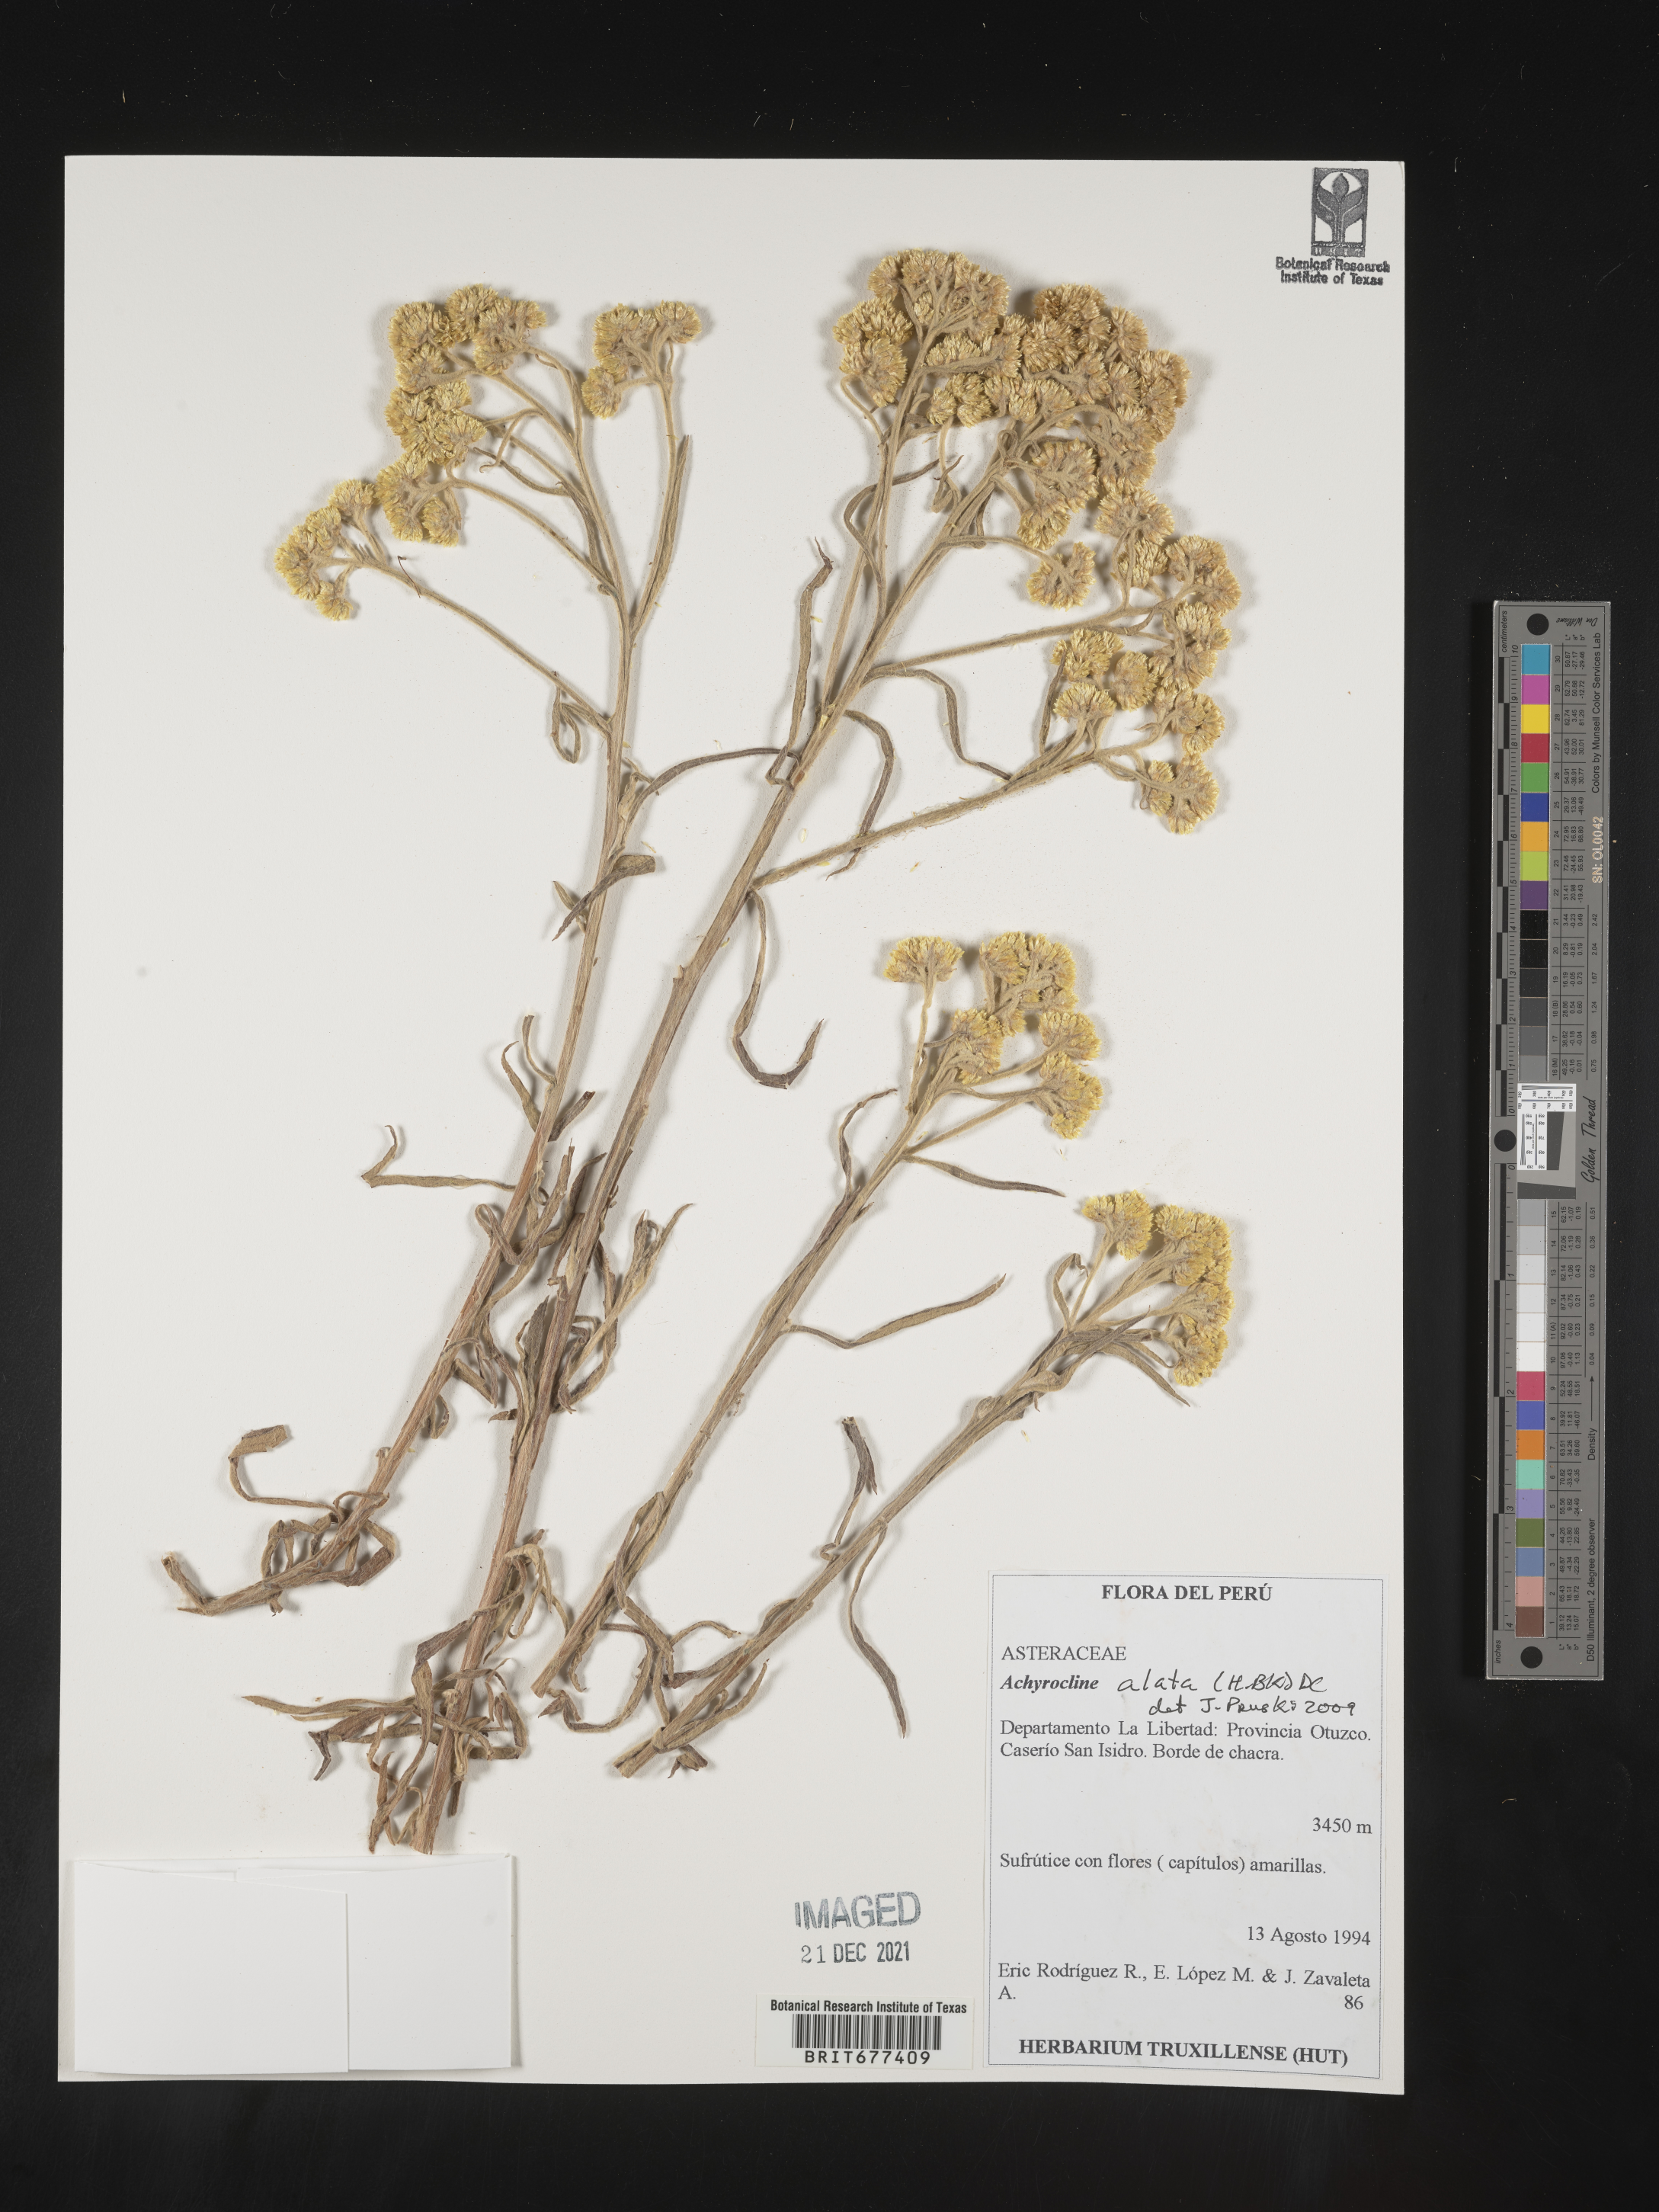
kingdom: Plantae
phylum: Tracheophyta
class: Magnoliopsida
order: Asterales
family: Asteraceae
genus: Achyrocline
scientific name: Achyrocline
